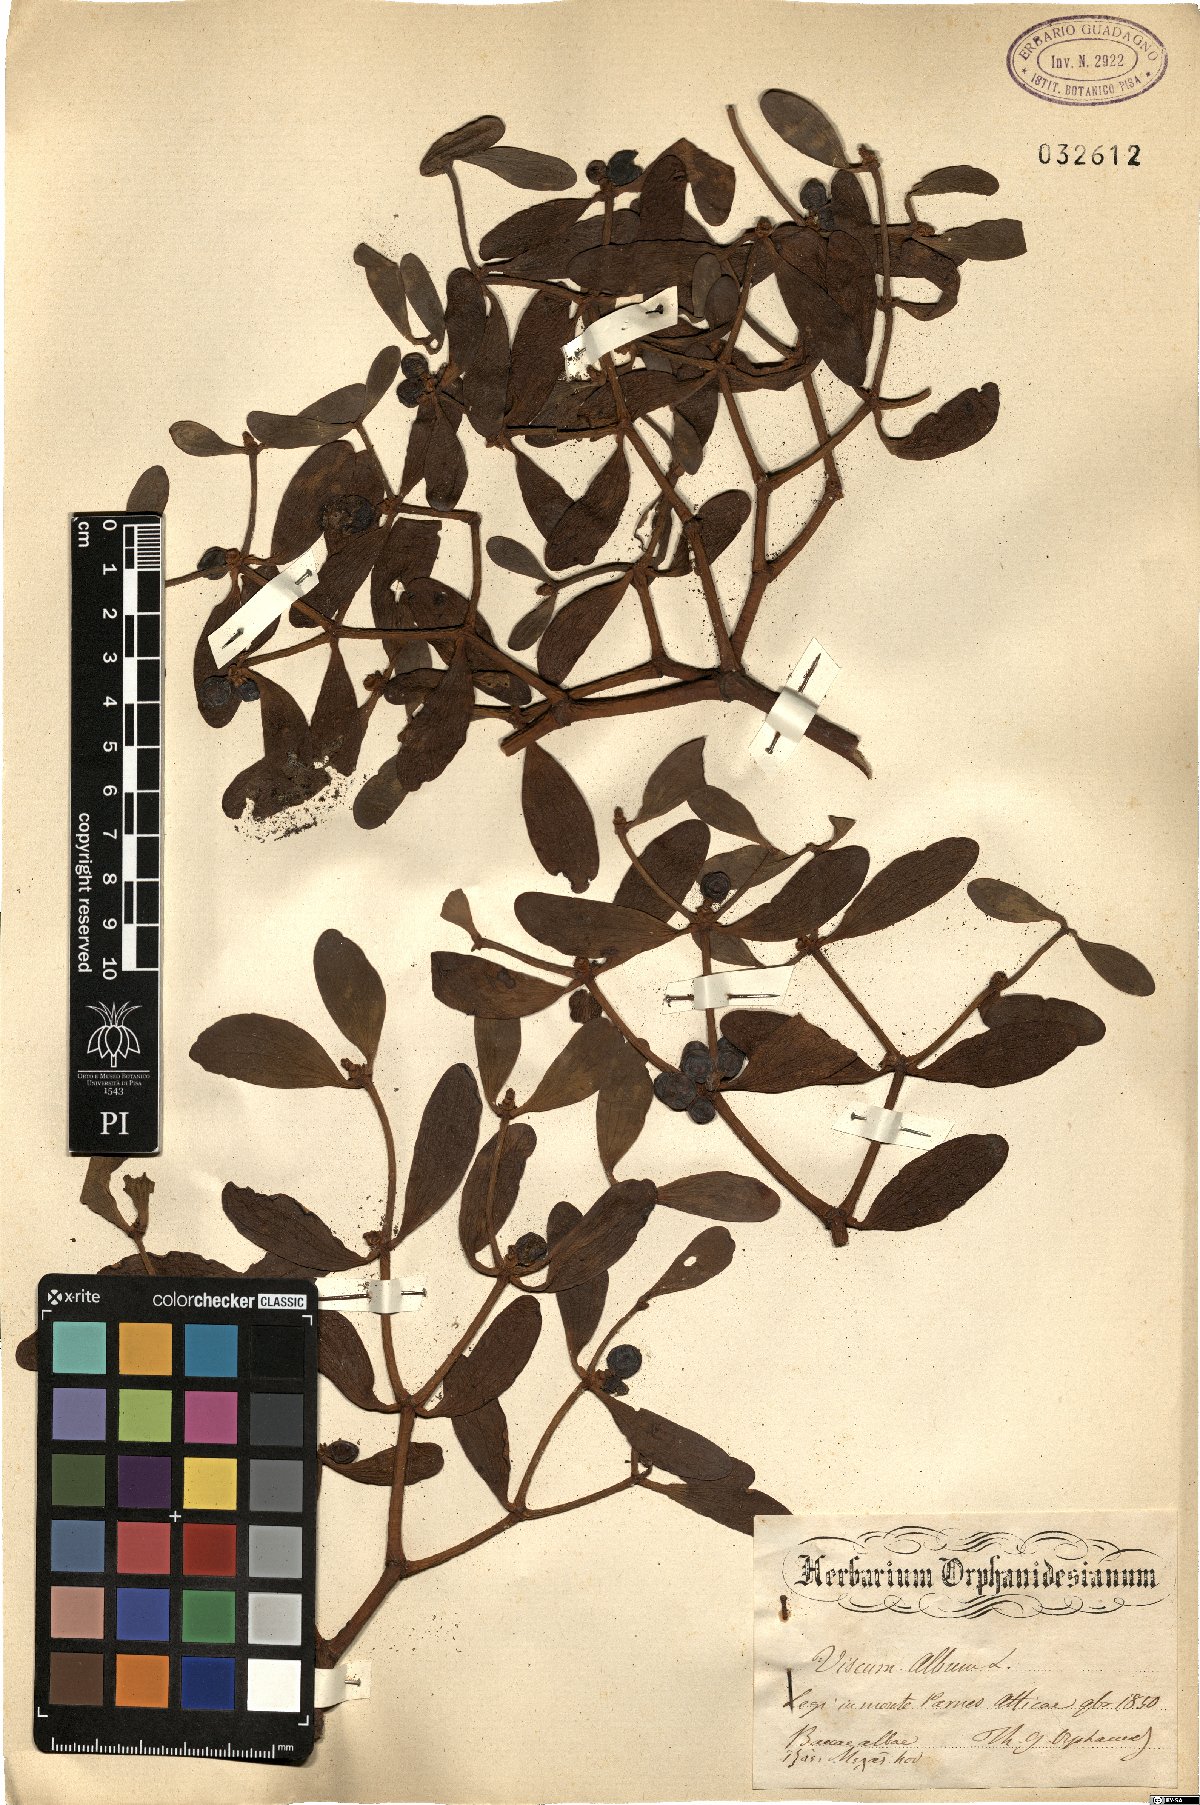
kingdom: Plantae
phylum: Tracheophyta
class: Magnoliopsida
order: Santalales
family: Viscaceae
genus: Viscum
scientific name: Viscum album
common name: Mistletoe
